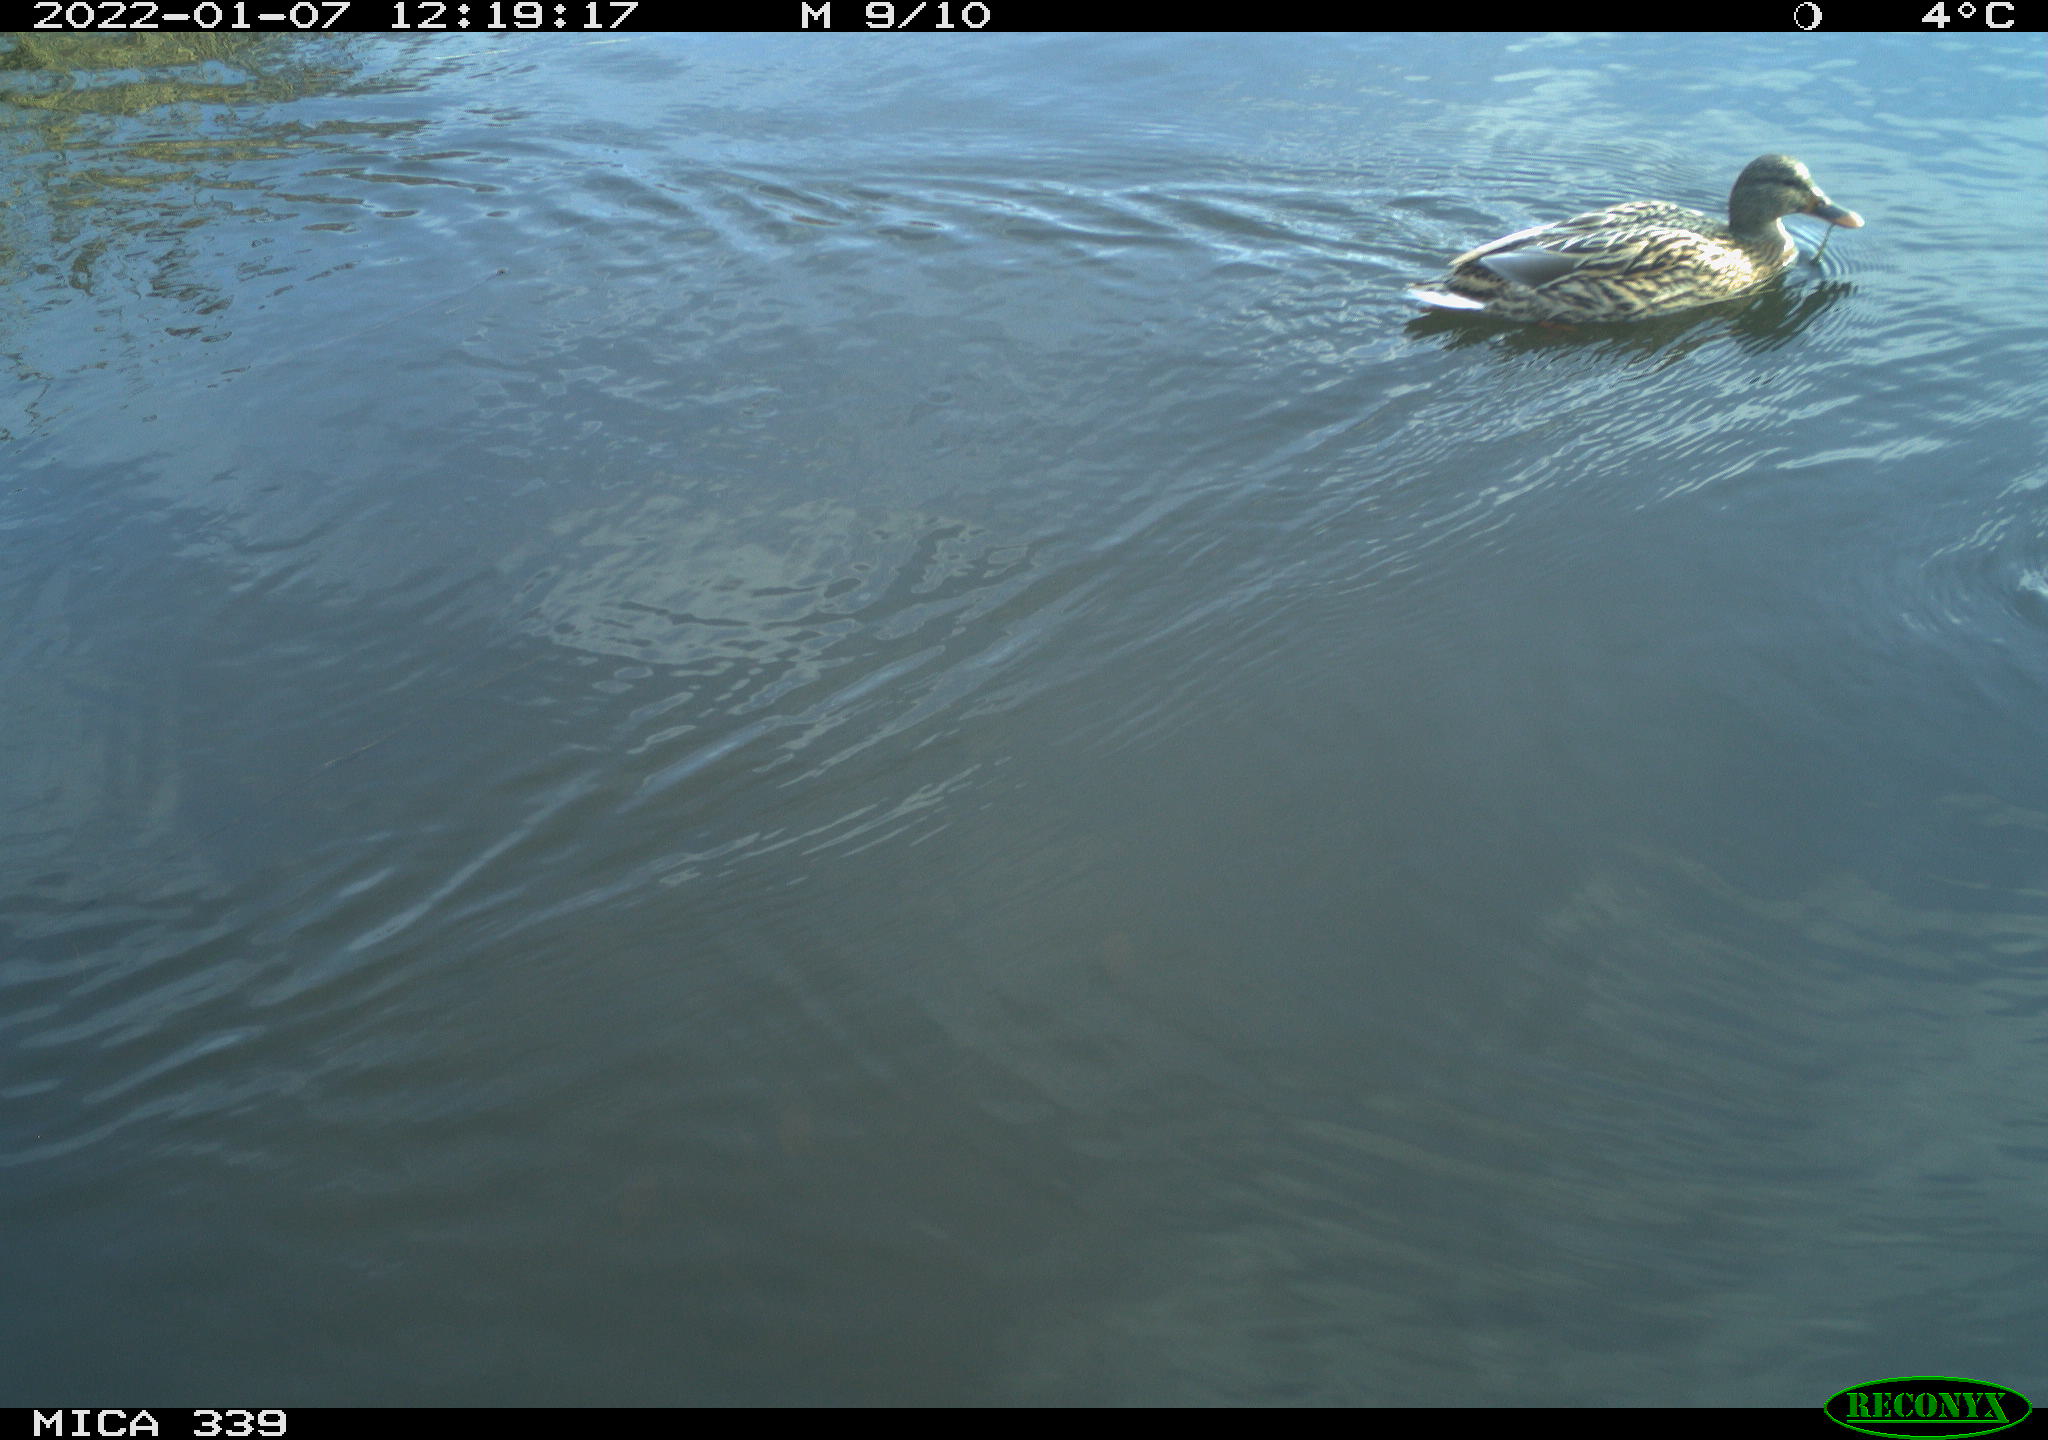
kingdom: Animalia
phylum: Chordata
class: Aves
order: Anseriformes
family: Anatidae
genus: Anas
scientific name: Anas platyrhynchos
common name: Mallard
